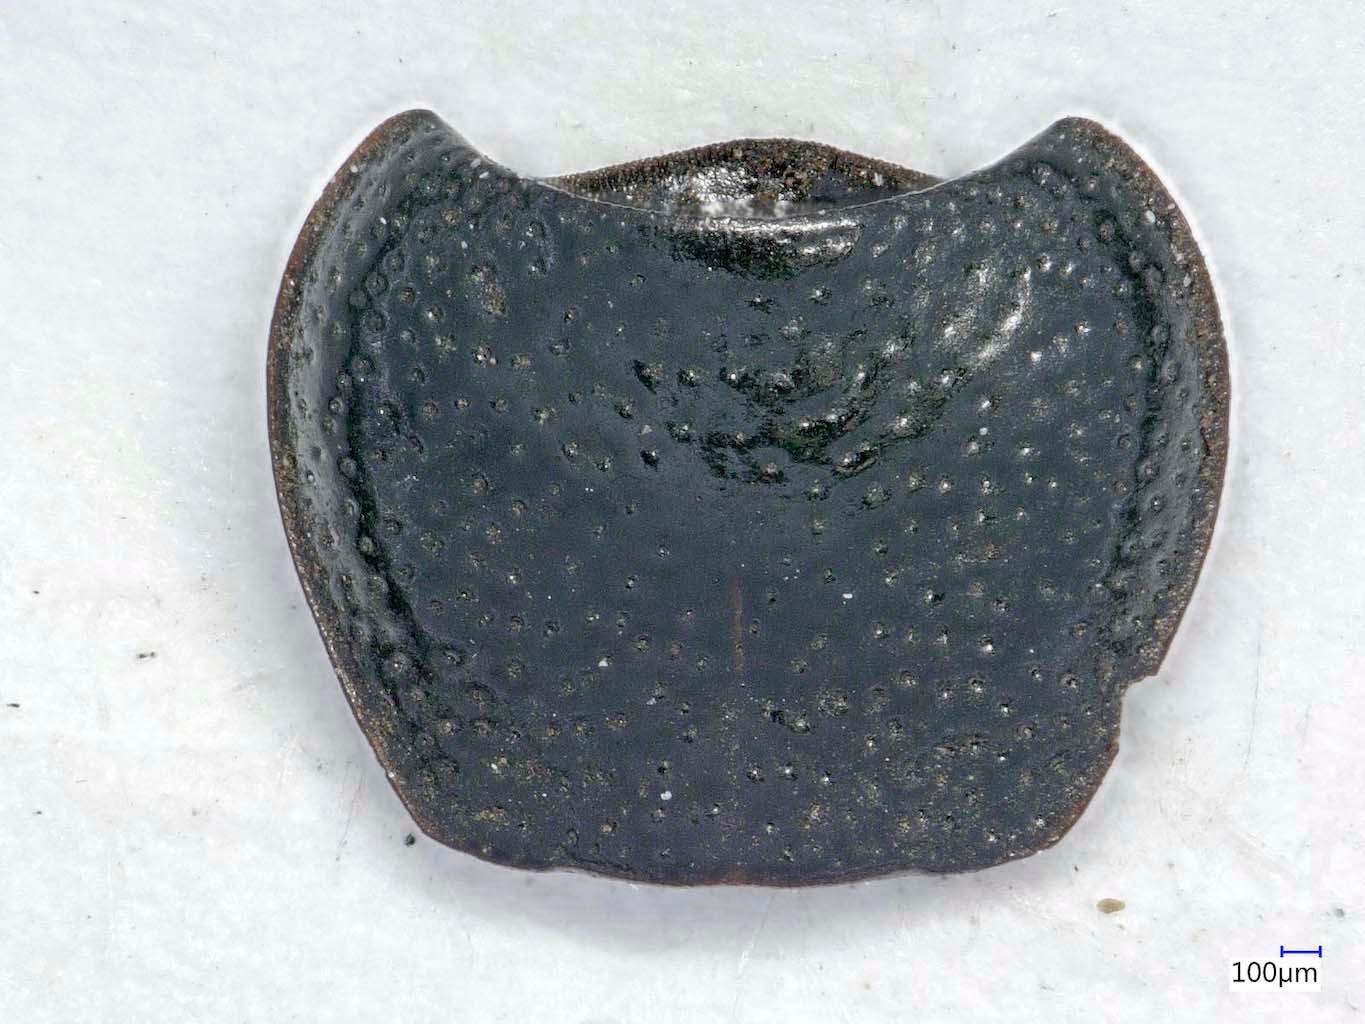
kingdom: Animalia
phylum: Arthropoda
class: Insecta
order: Coleoptera
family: Carabidae
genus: Dicheirus
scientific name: Dicheirus dilatatus
